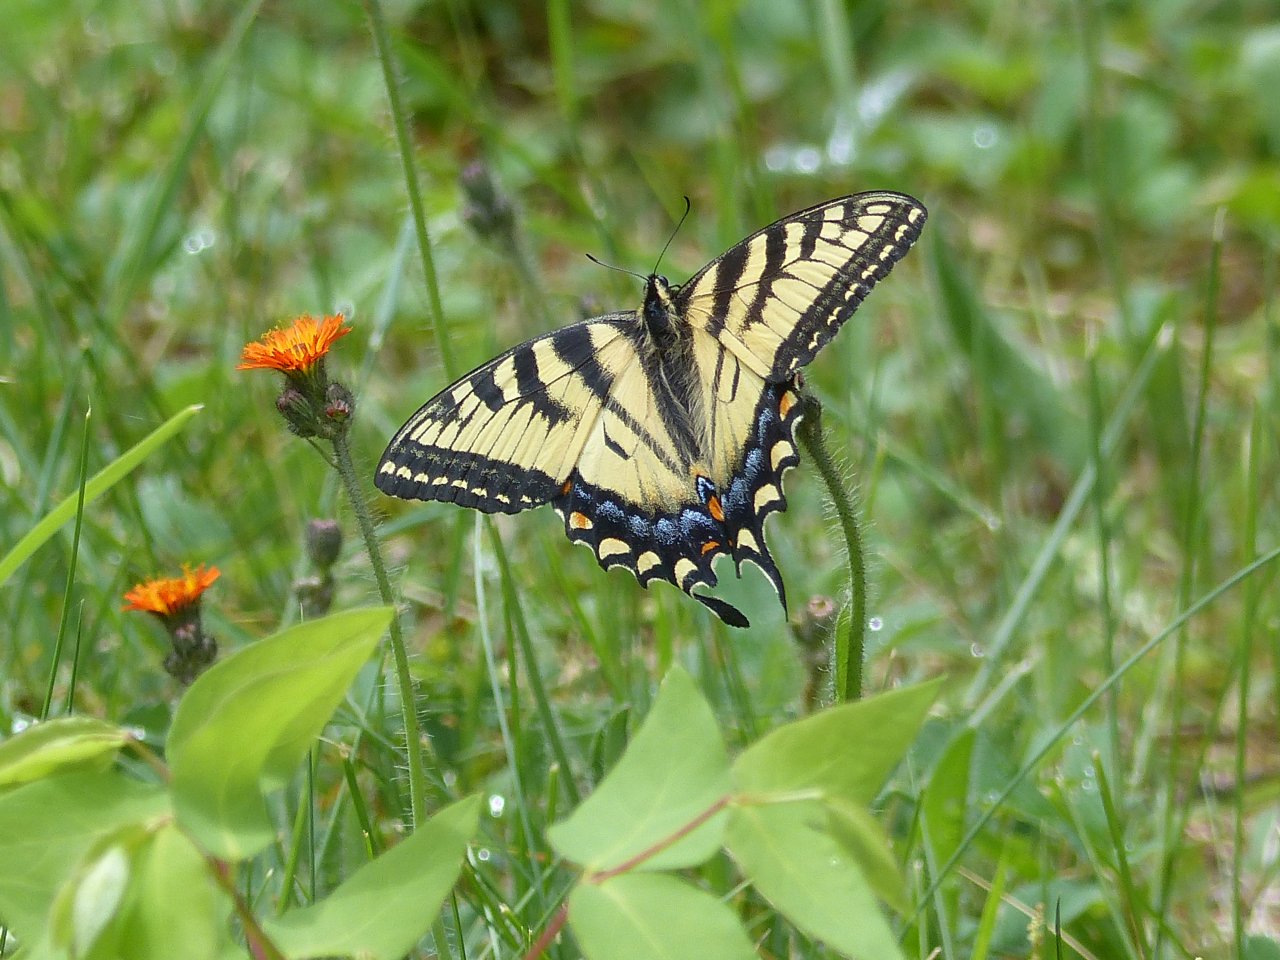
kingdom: Animalia
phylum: Arthropoda
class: Insecta
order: Lepidoptera
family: Papilionidae
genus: Pterourus
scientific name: Pterourus glaucus
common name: Eastern Tiger Swallowtail
